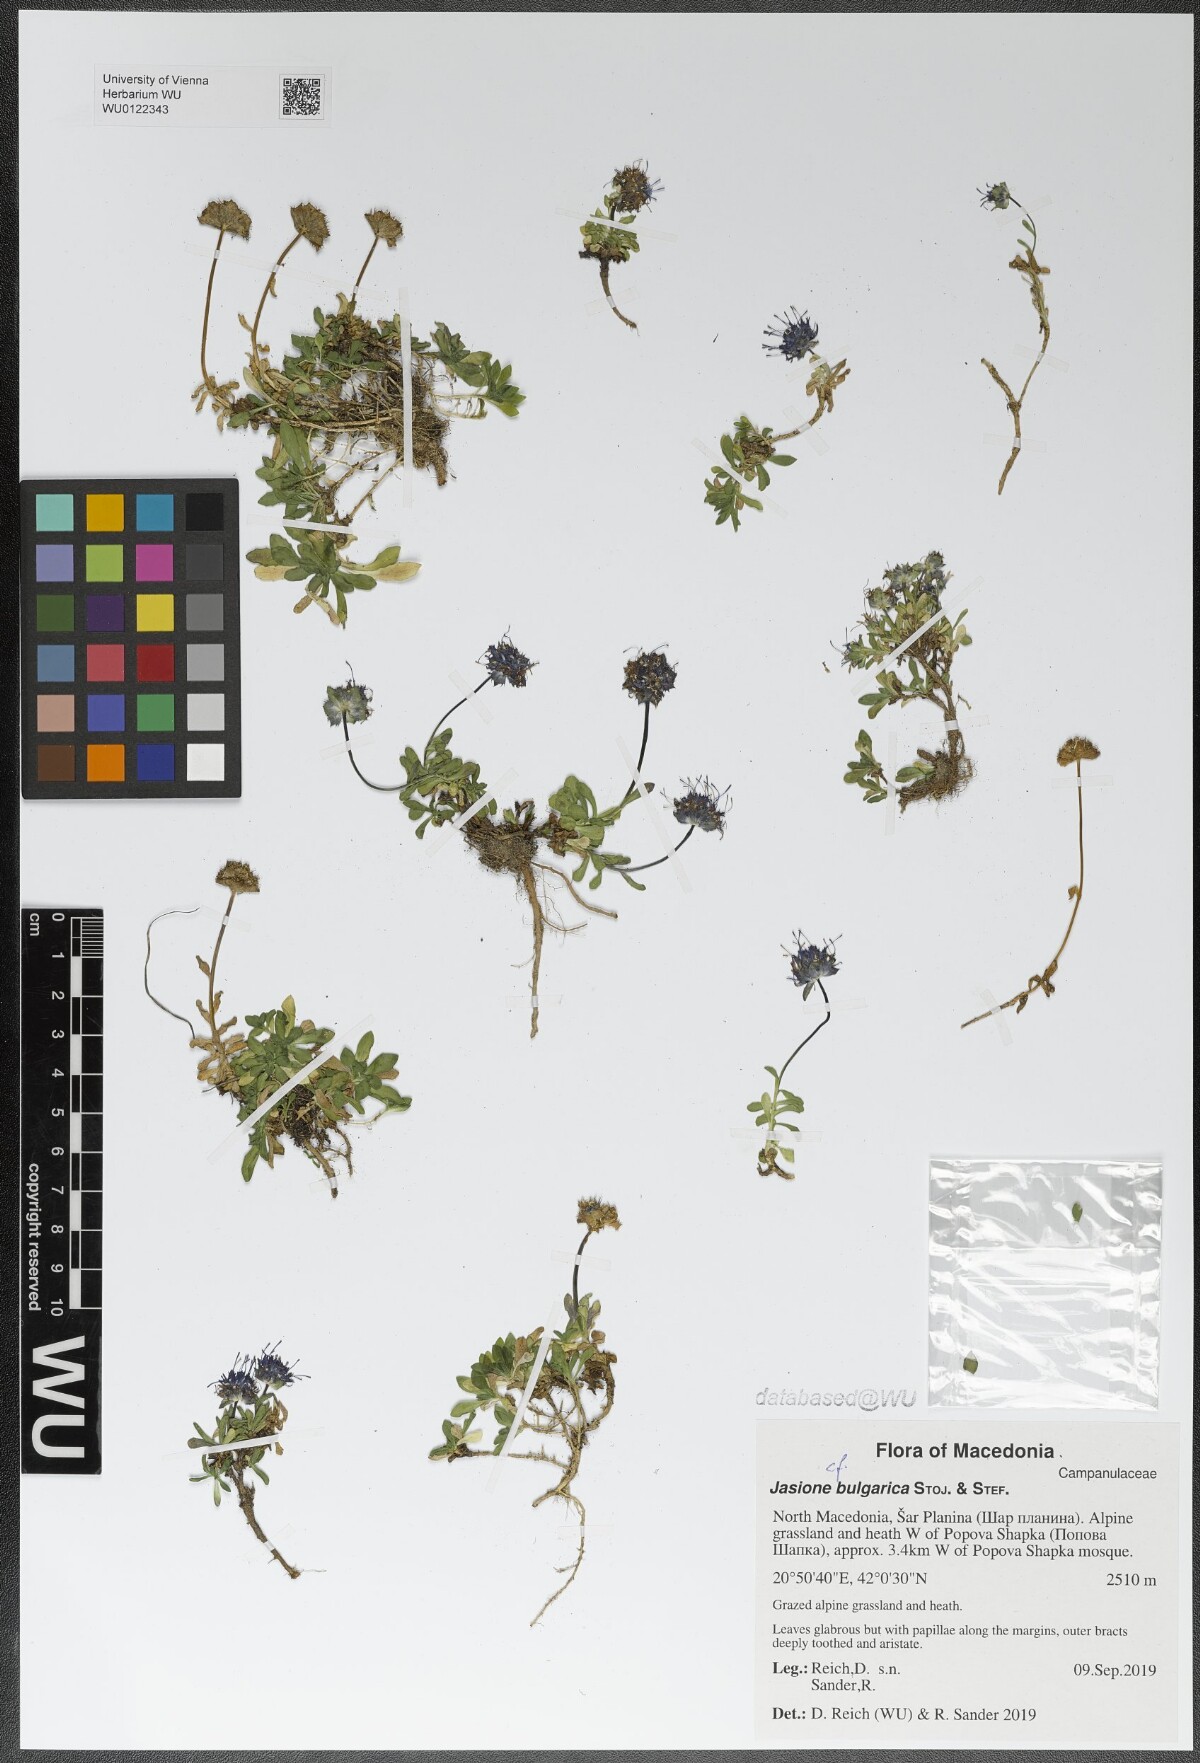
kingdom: Plantae
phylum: Tracheophyta
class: Magnoliopsida
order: Asterales
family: Campanulaceae
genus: Jasione
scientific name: Jasione bulgarica
